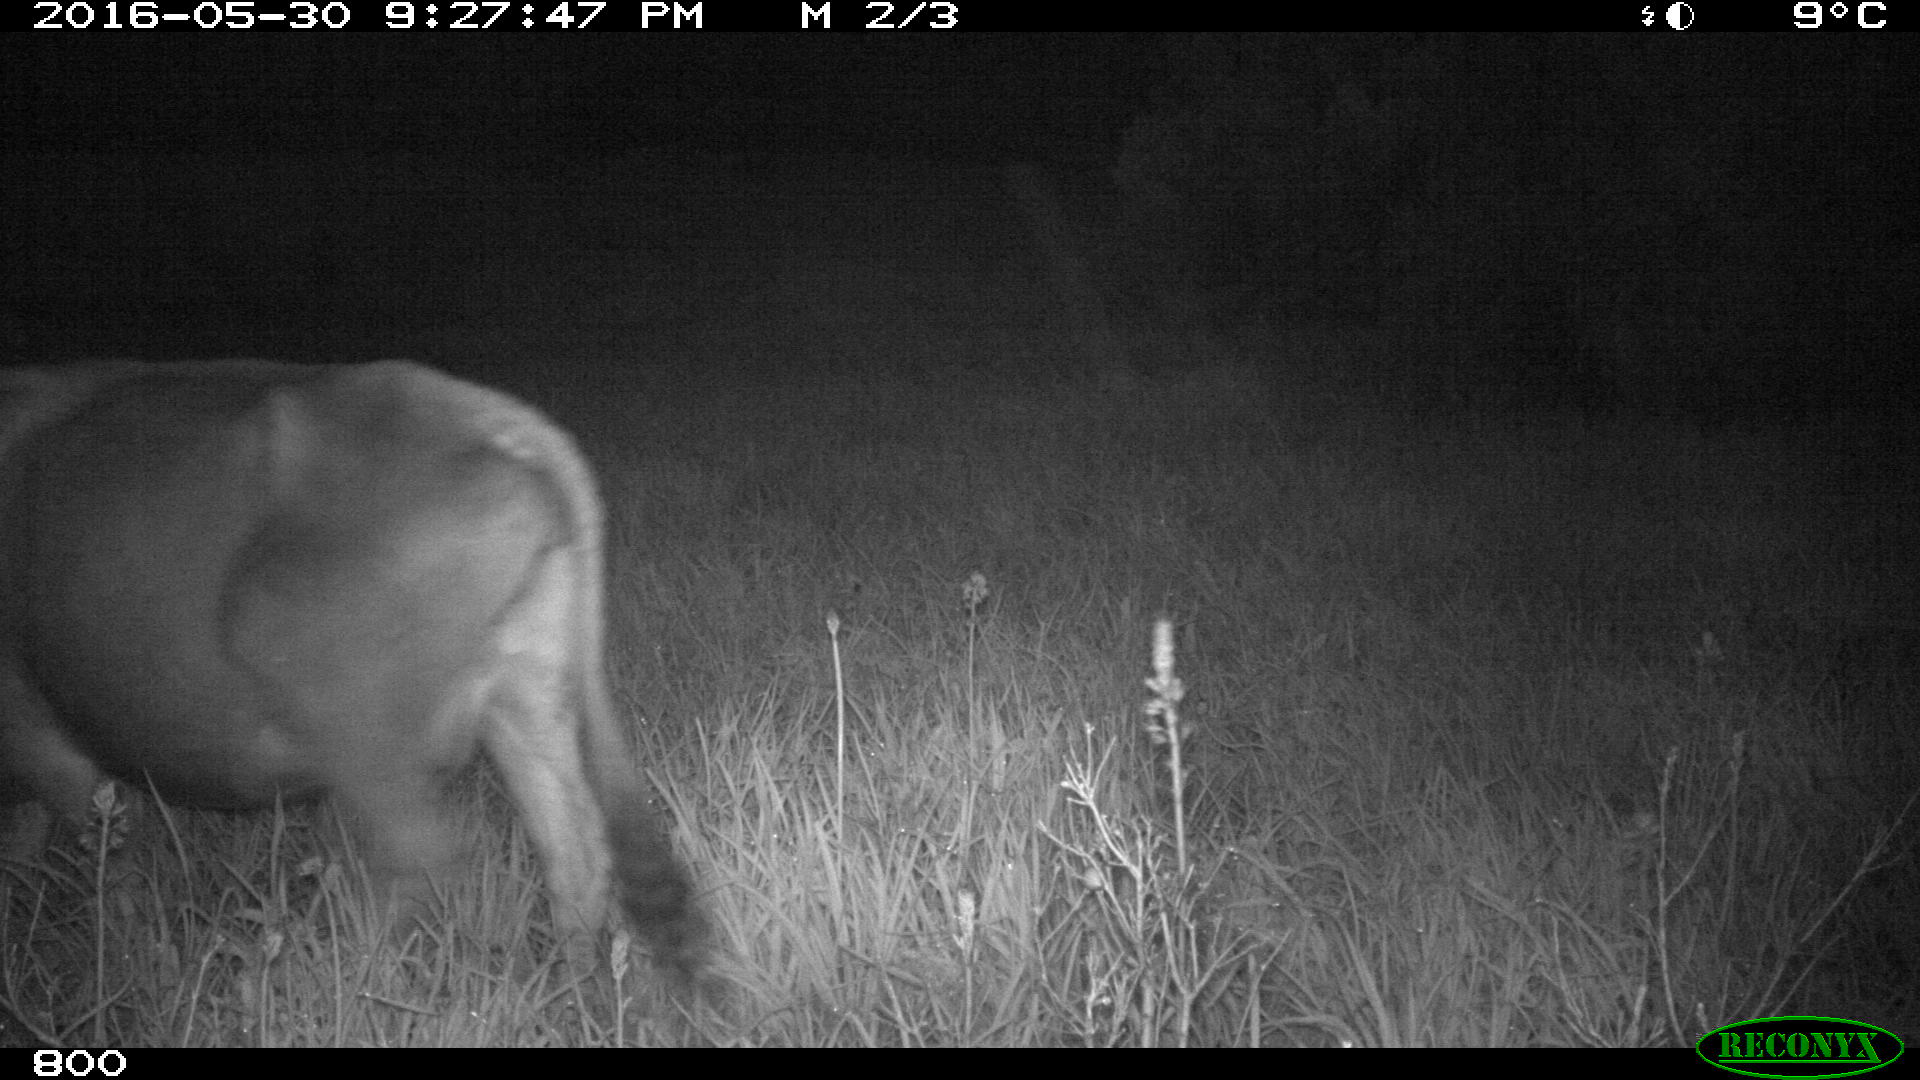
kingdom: Animalia
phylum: Chordata
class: Mammalia
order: Artiodactyla
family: Bovidae
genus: Bos
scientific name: Bos taurus
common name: Domesticated cattle
